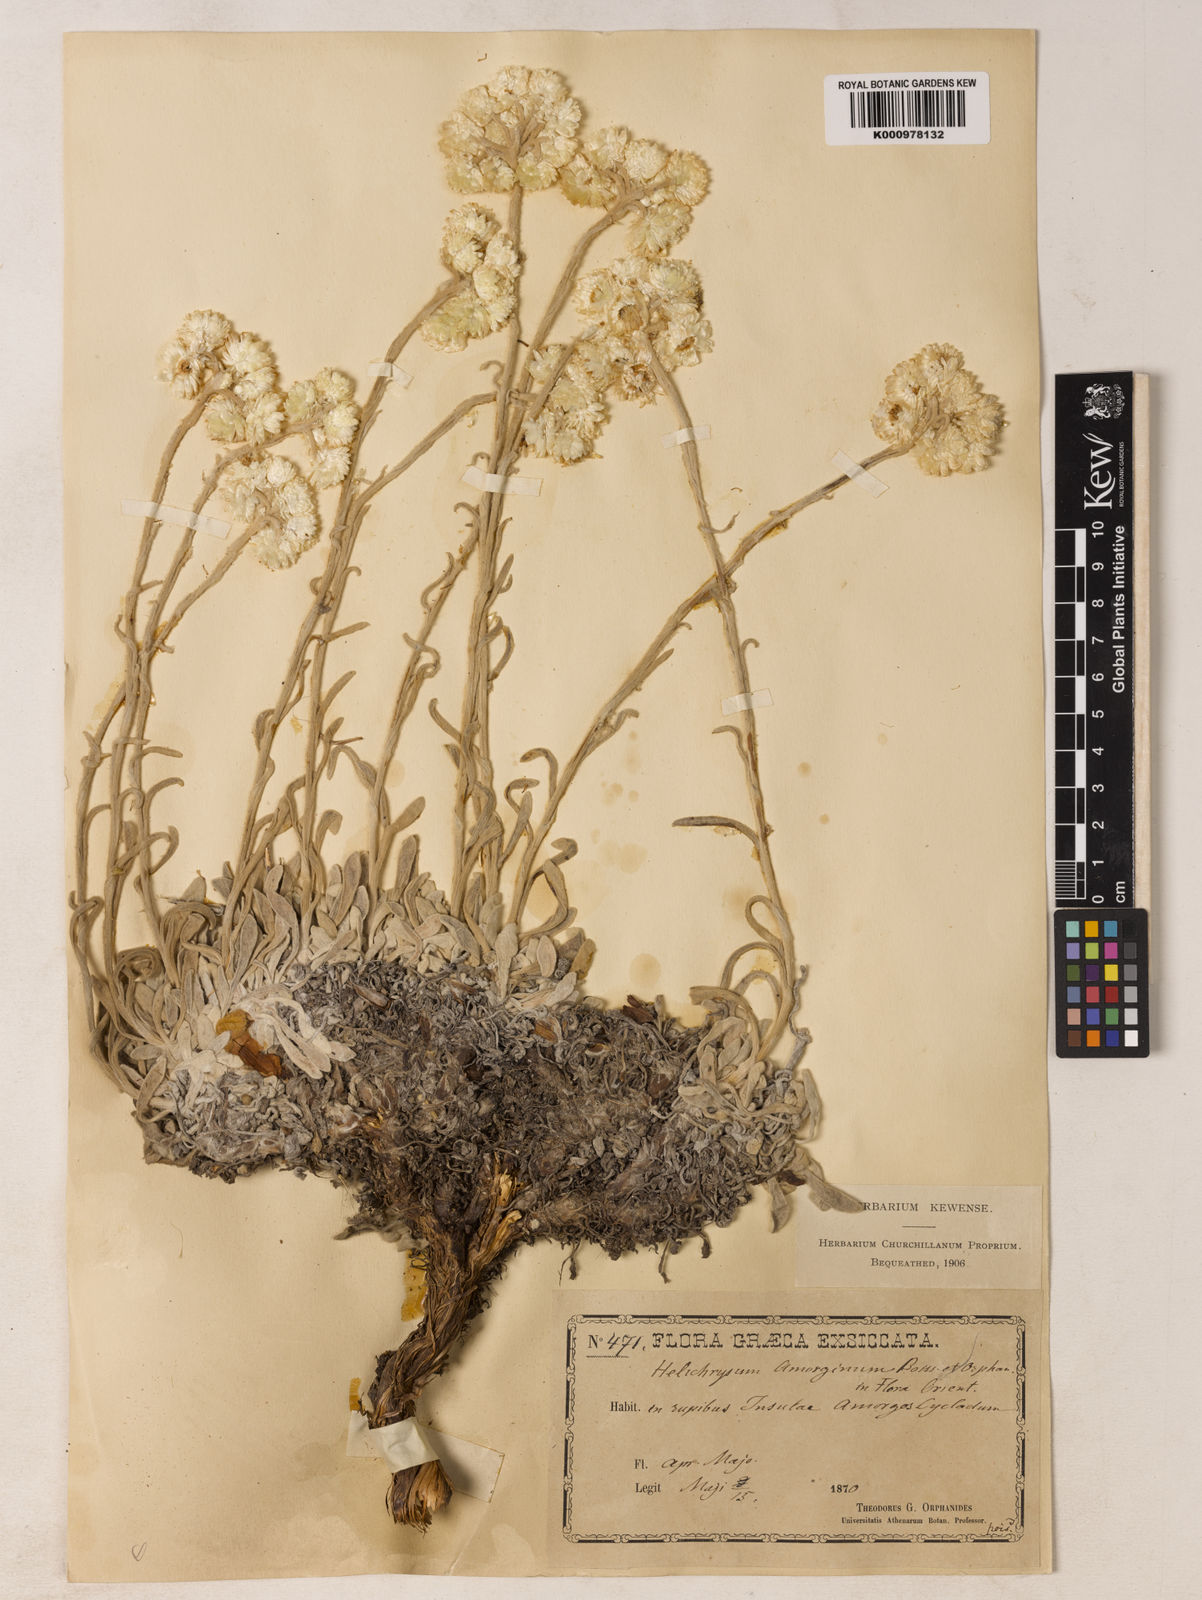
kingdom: Plantae
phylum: Tracheophyta
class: Magnoliopsida
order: Asterales
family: Asteraceae
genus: Helichrysum
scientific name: Helichrysum amorginum
